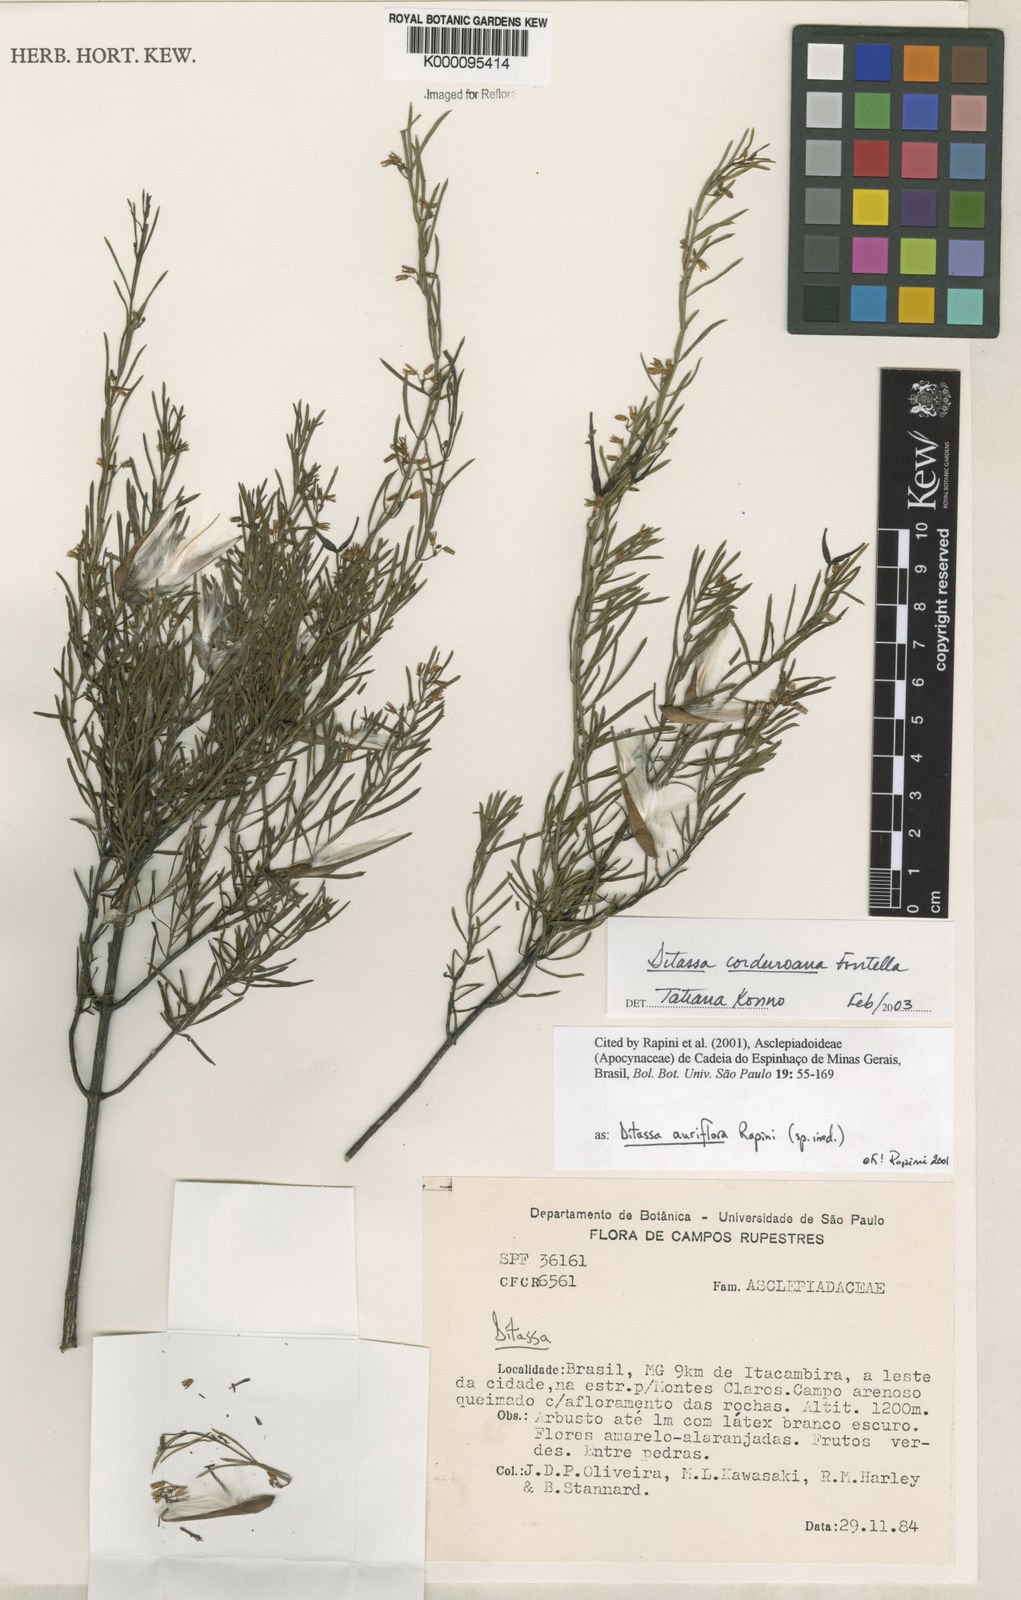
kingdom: Plantae
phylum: Tracheophyta
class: Magnoliopsida
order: Gentianales
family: Apocynaceae
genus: Ditassa
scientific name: Ditassa cordeiroana
